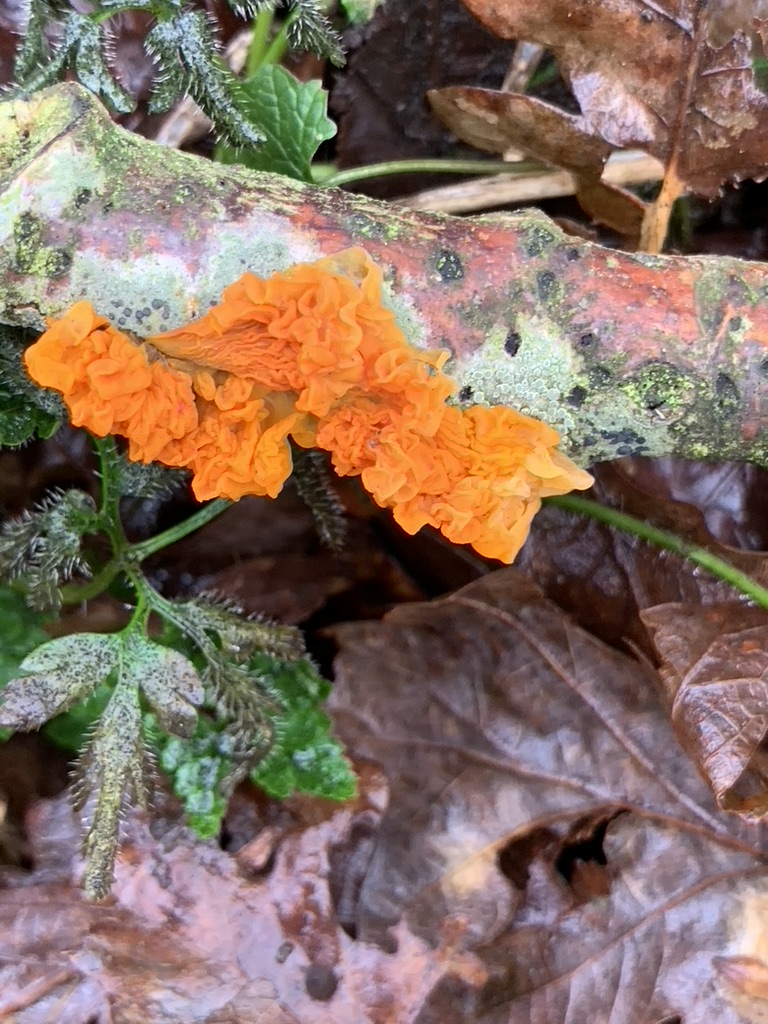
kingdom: Fungi
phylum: Basidiomycota
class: Tremellomycetes
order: Tremellales
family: Tremellaceae
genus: Tremella
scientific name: Tremella mesenterica
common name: gul bævresvamp
